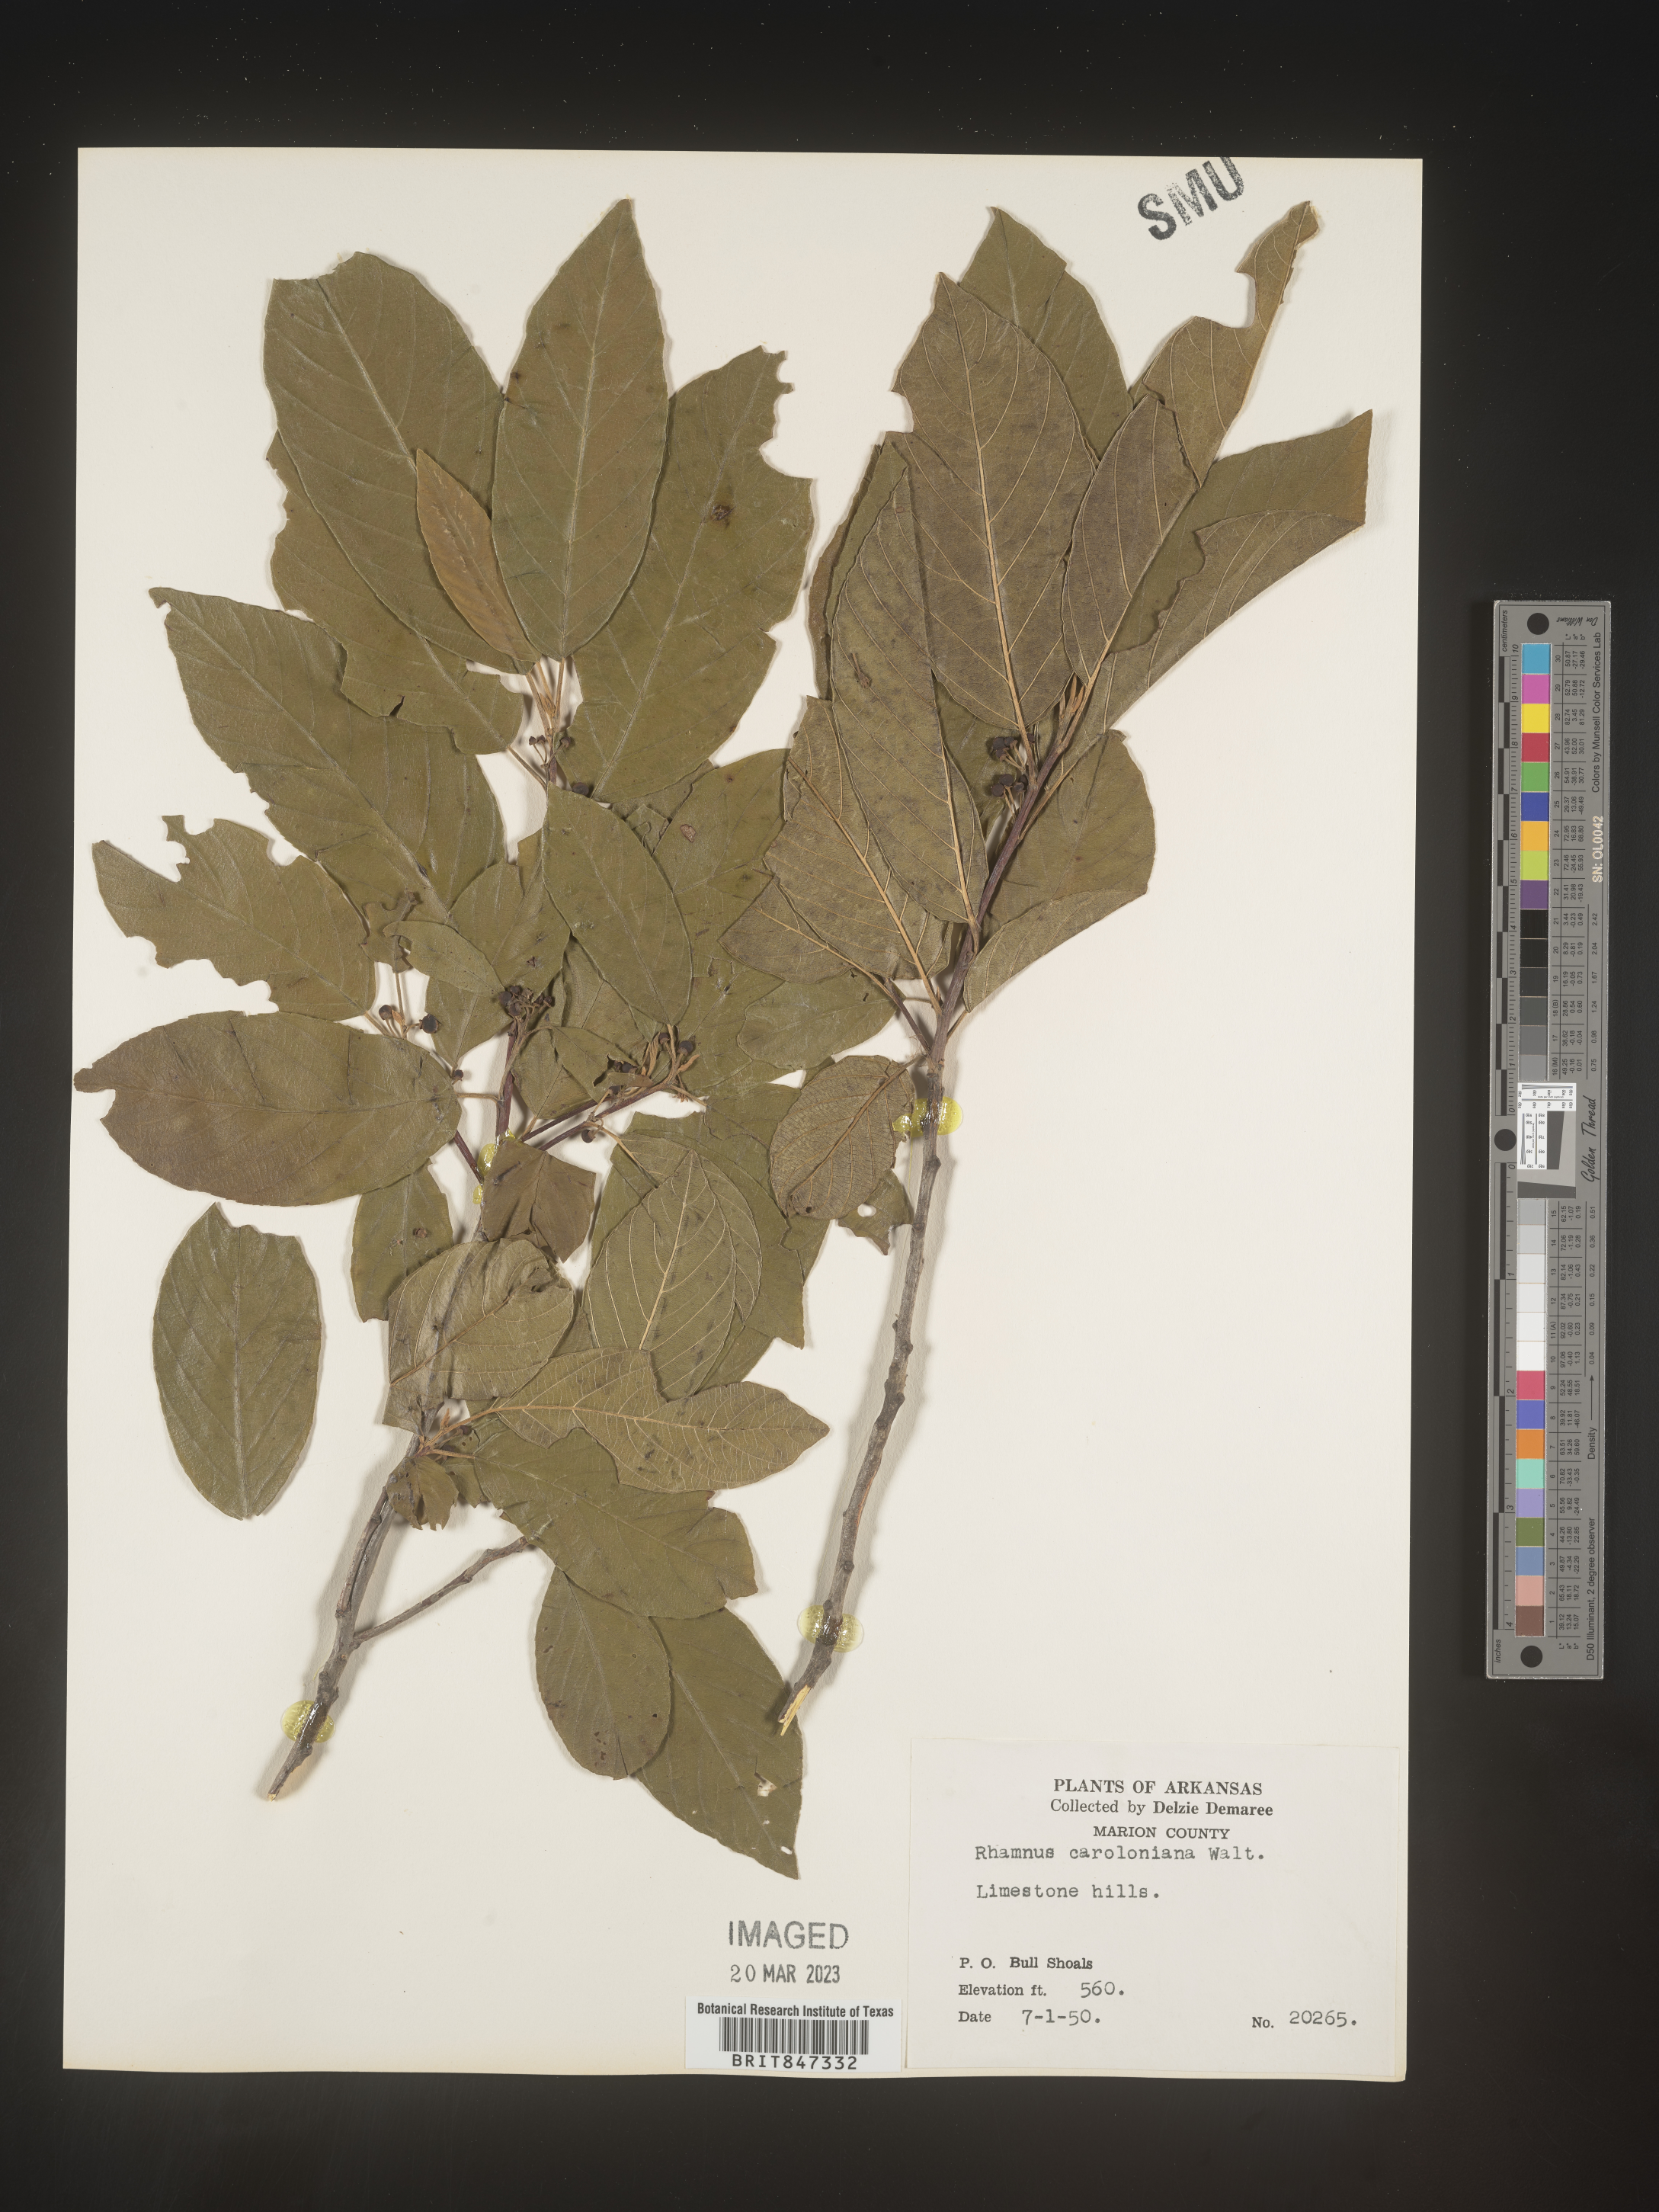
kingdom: Plantae
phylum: Tracheophyta
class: Magnoliopsida
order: Rosales
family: Rhamnaceae
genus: Frangula
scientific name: Frangula caroliniana
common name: Carolina buckthorn
